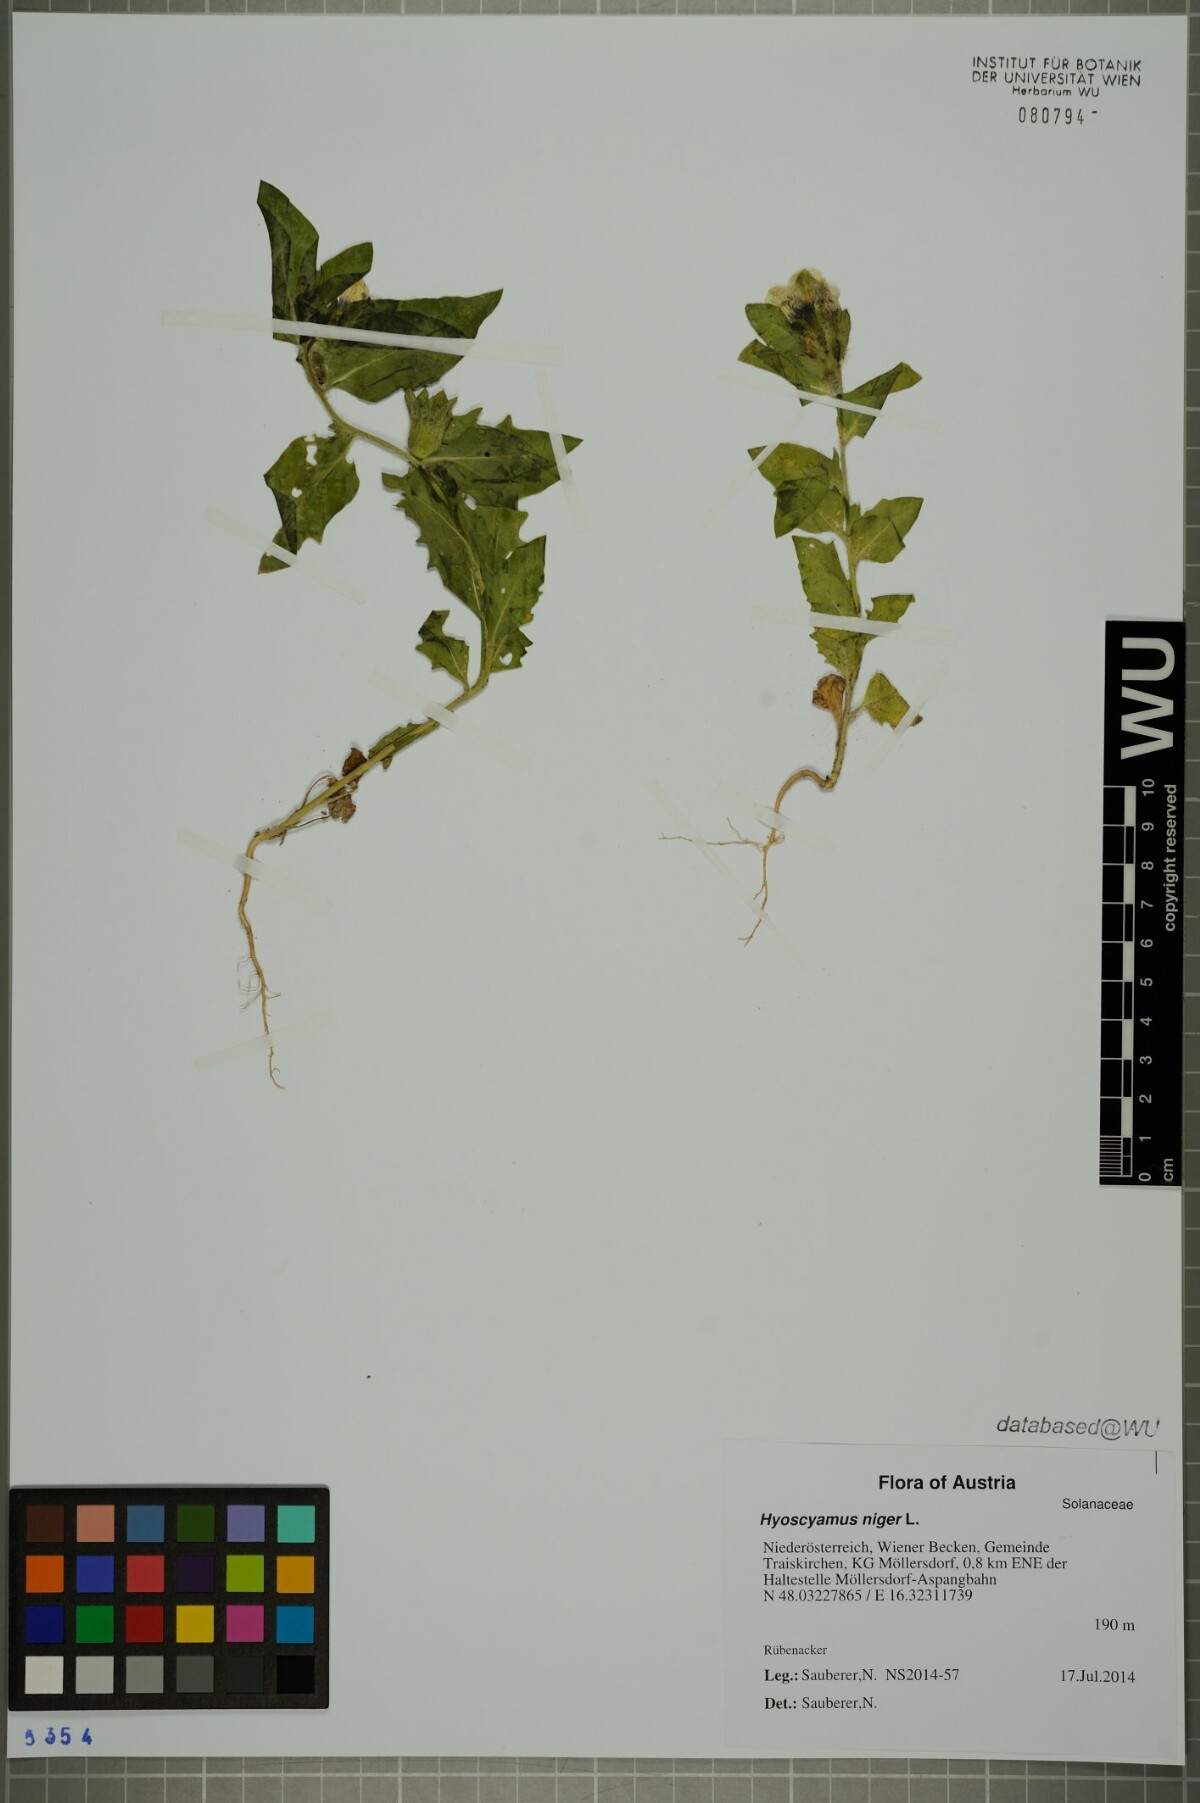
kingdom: Plantae
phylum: Tracheophyta
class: Magnoliopsida
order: Solanales
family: Solanaceae
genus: Hyoscyamus
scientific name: Hyoscyamus niger
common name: Henbane
